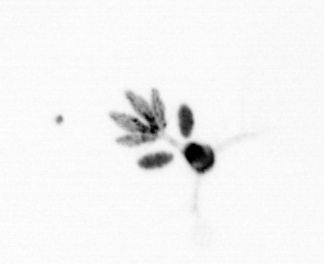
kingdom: Animalia
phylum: Arthropoda
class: Copepoda
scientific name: Copepoda
